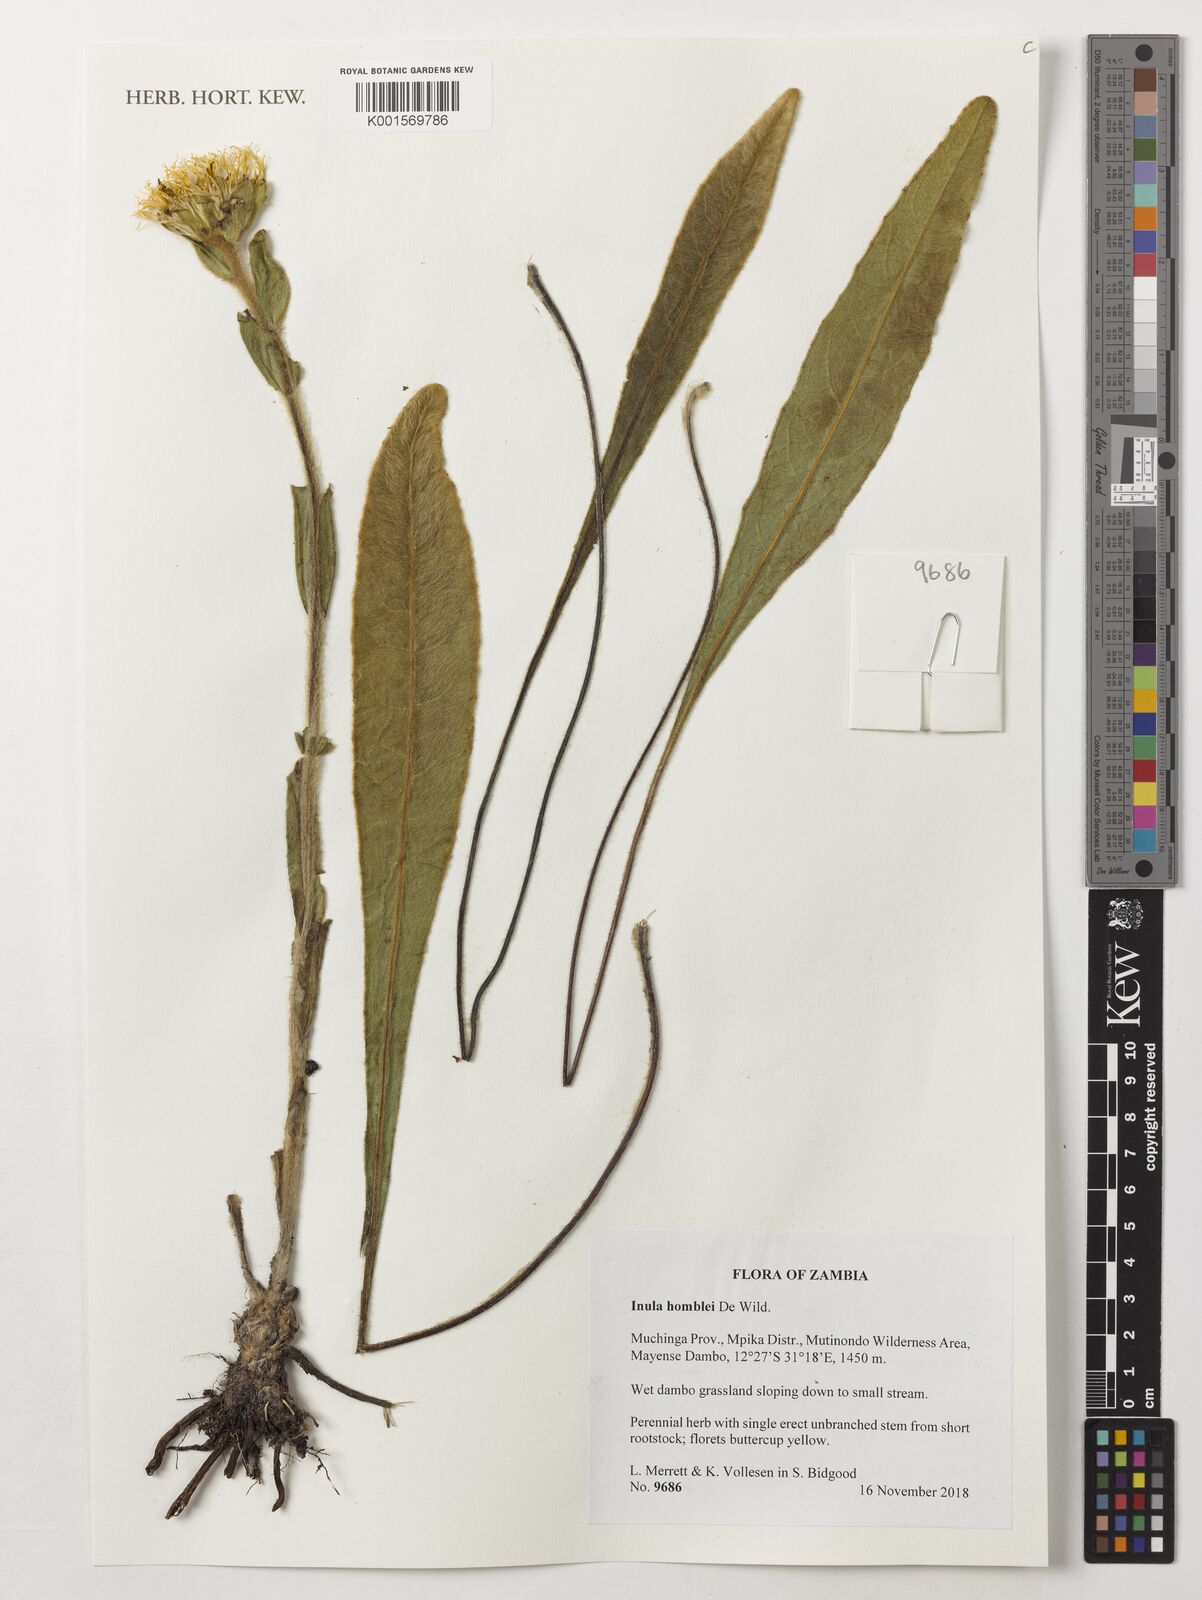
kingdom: Plantae
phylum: Tracheophyta
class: Magnoliopsida
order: Asterales
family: Asteraceae
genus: Inula
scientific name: Inula paludosa
